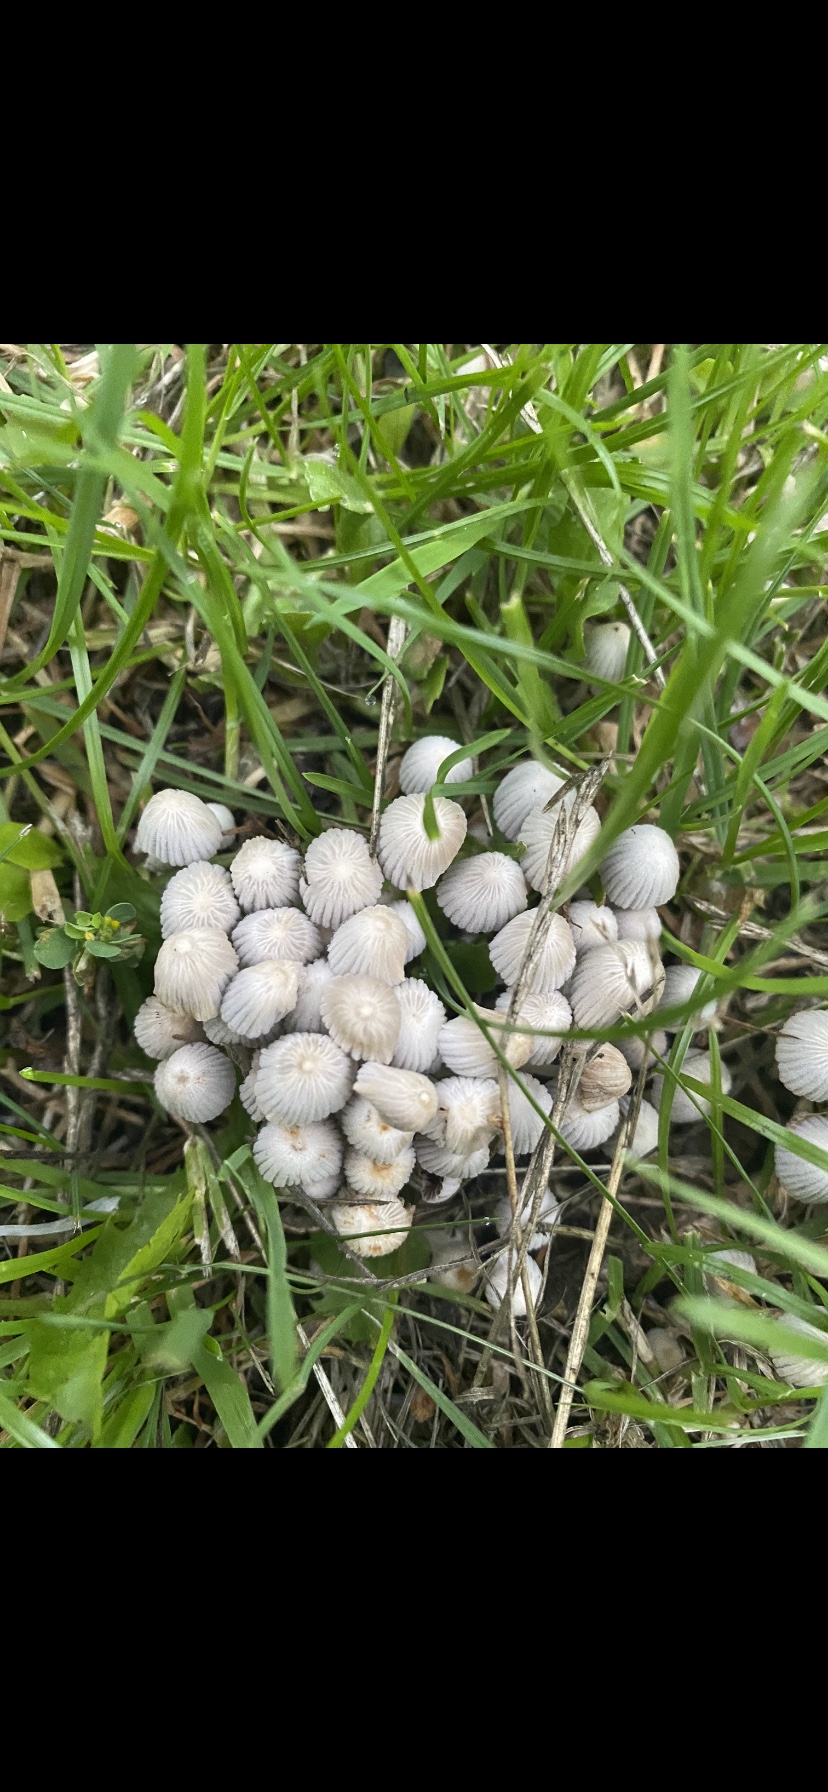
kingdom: Fungi
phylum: Basidiomycota
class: Agaricomycetes
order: Agaricales
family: Psathyrellaceae
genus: Coprinellus
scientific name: Coprinellus disseminatus
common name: bredsået blækhat
